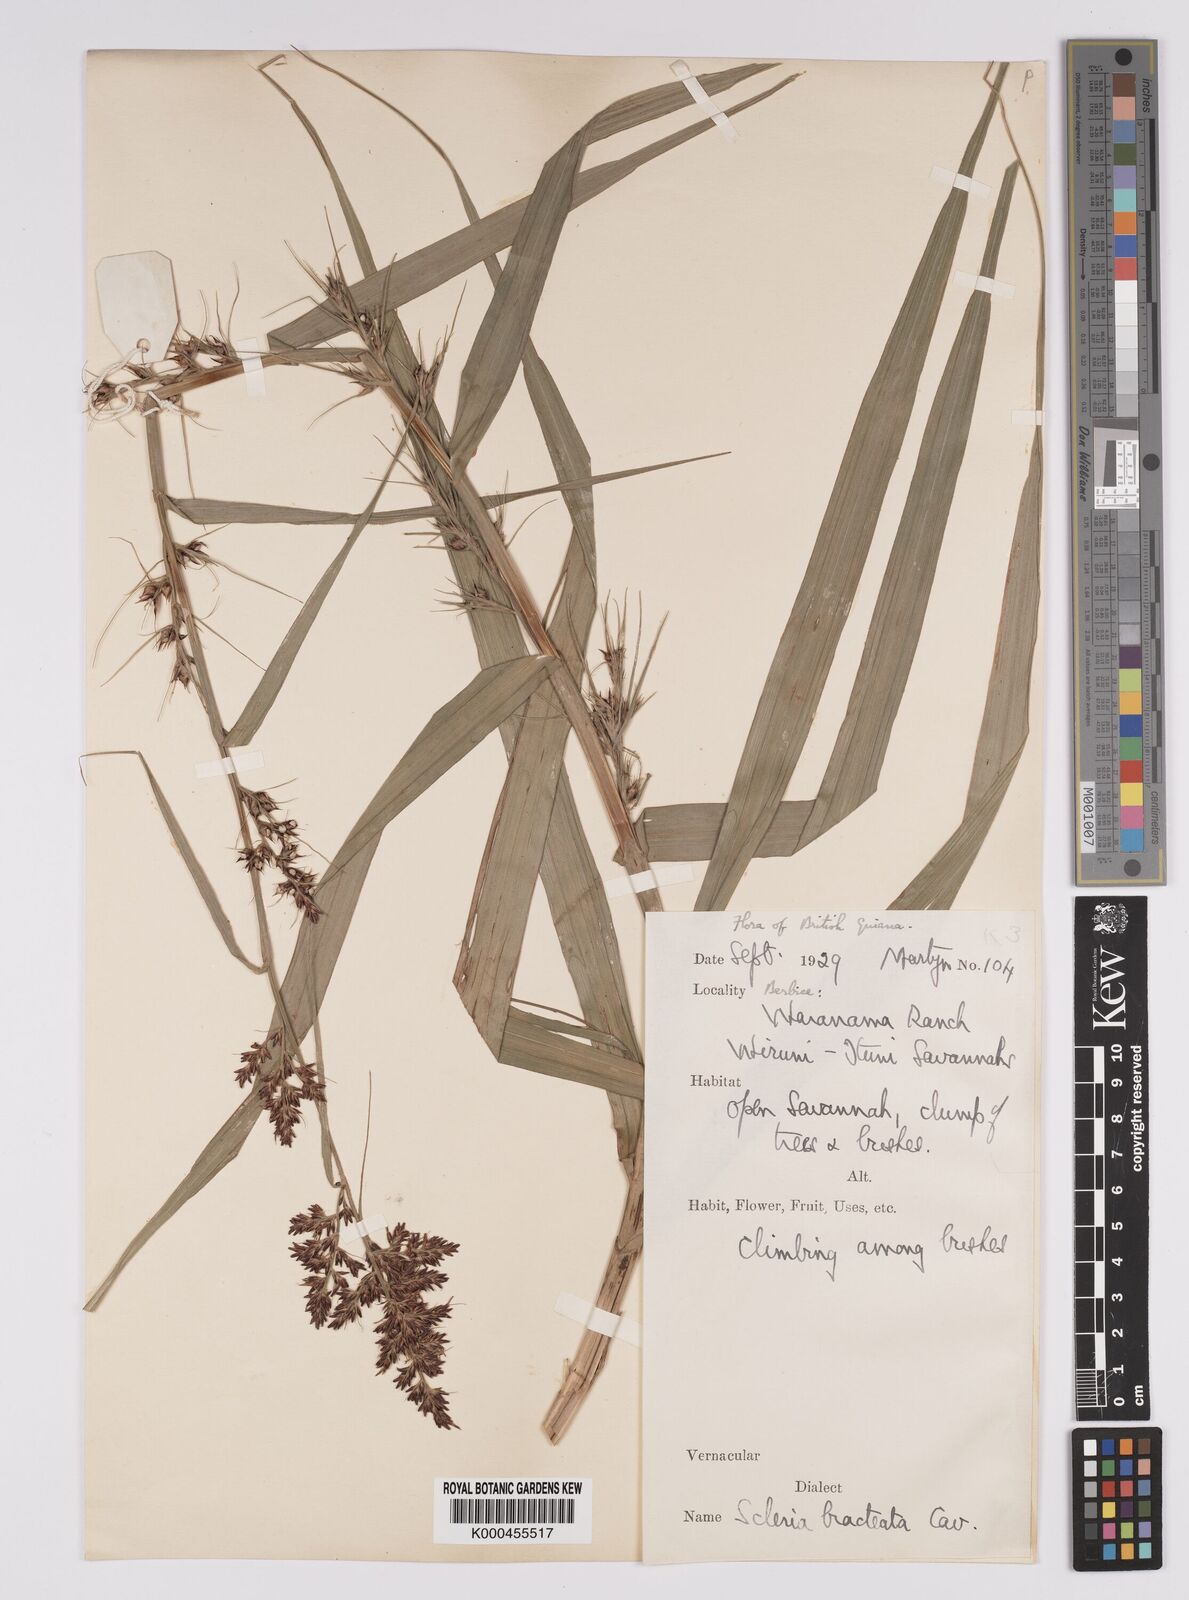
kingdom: Plantae
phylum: Tracheophyta
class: Liliopsida
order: Poales
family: Cyperaceae
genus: Scleria
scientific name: Scleria bracteata
